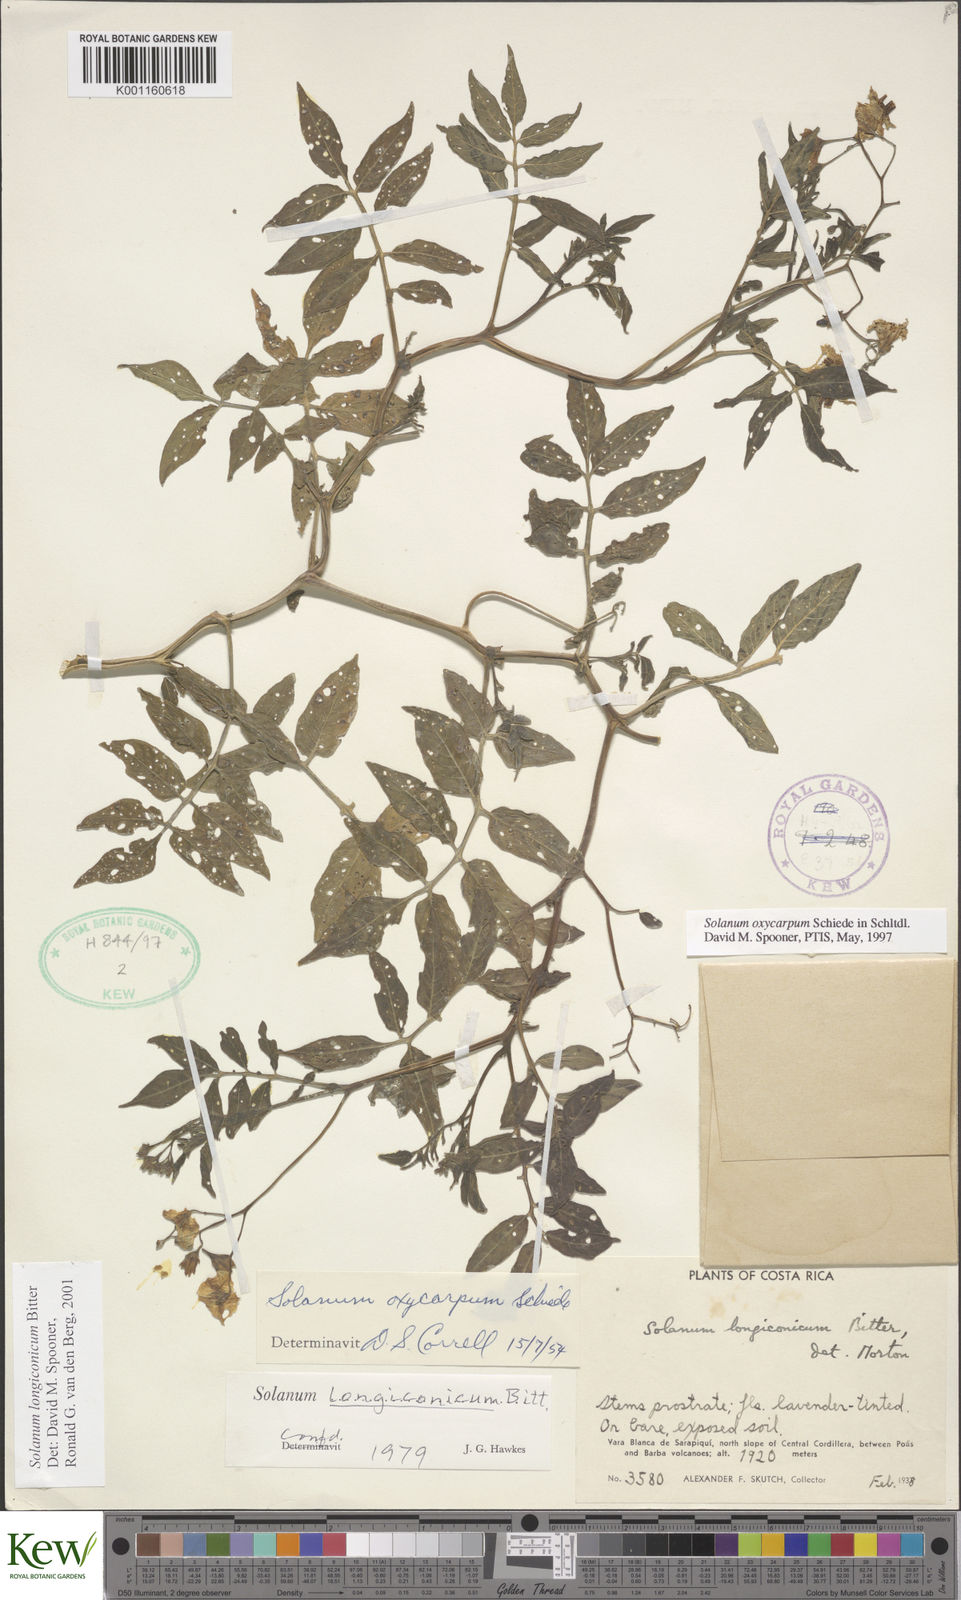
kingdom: Plantae
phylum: Tracheophyta
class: Magnoliopsida
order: Solanales
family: Solanaceae
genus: Solanum
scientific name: Solanum oxycarpum
